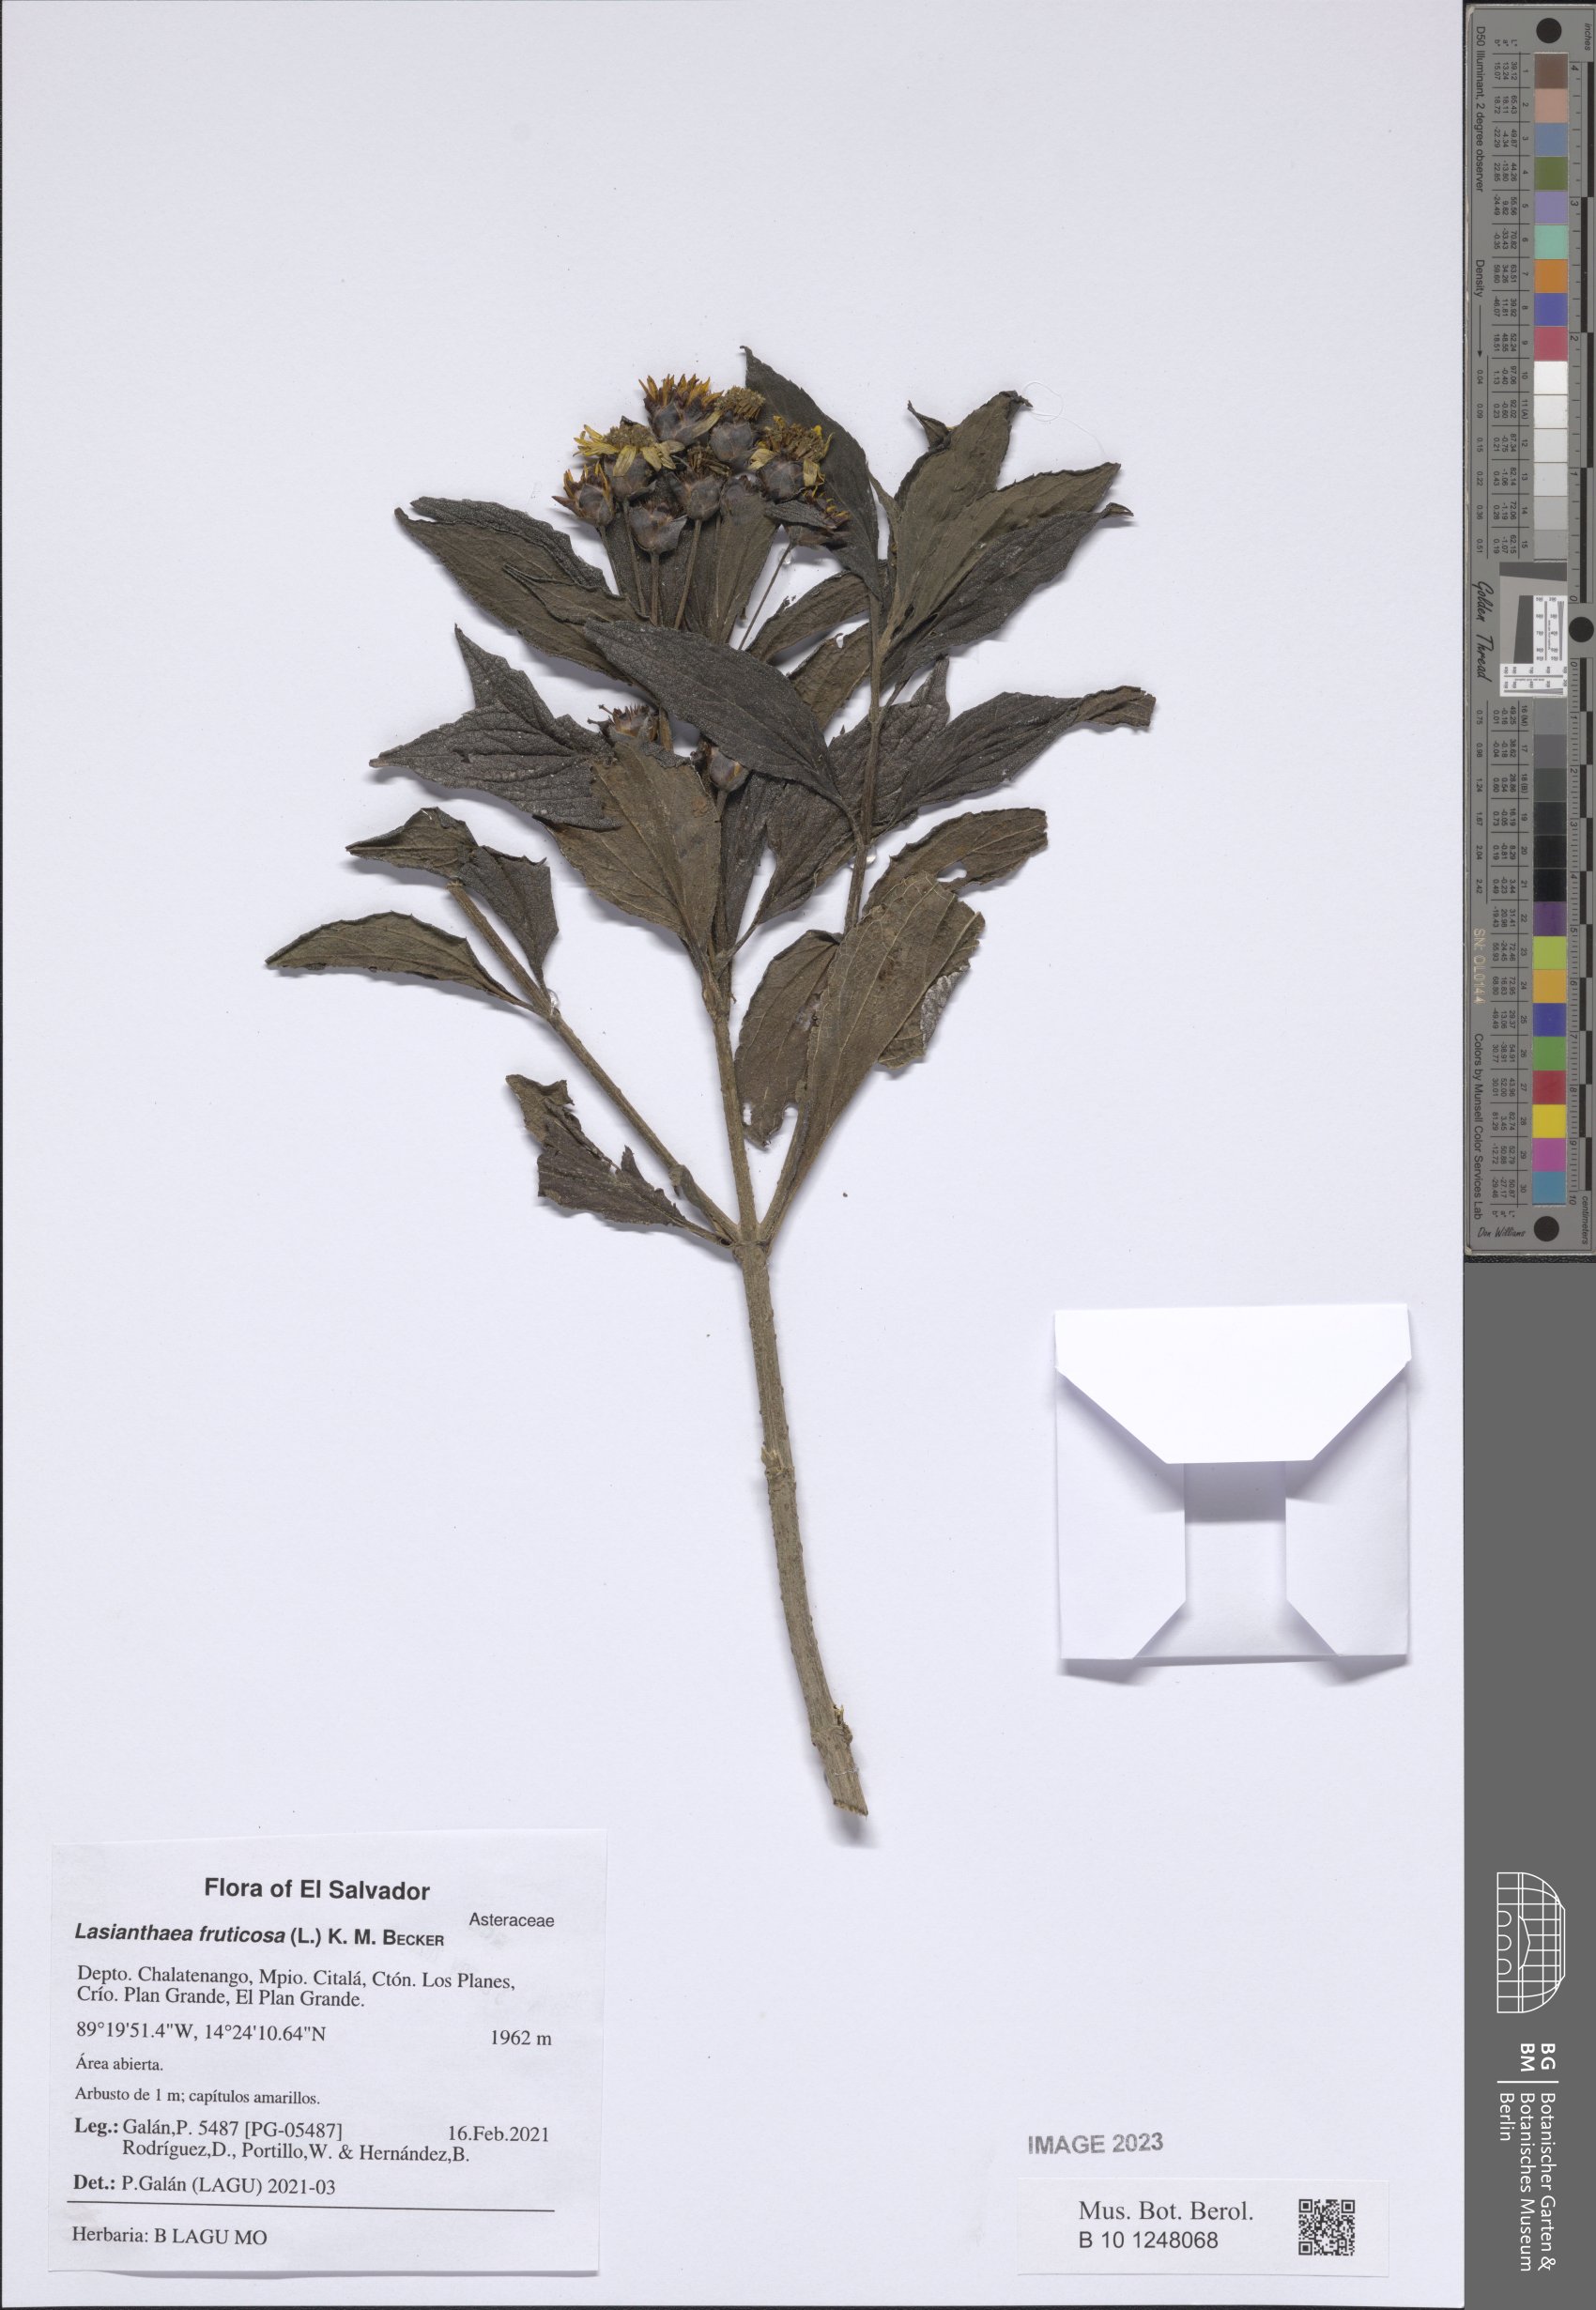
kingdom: Plantae
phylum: Tracheophyta
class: Magnoliopsida
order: Asterales
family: Asteraceae
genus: Lasianthaea
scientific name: Lasianthaea fruticosa
